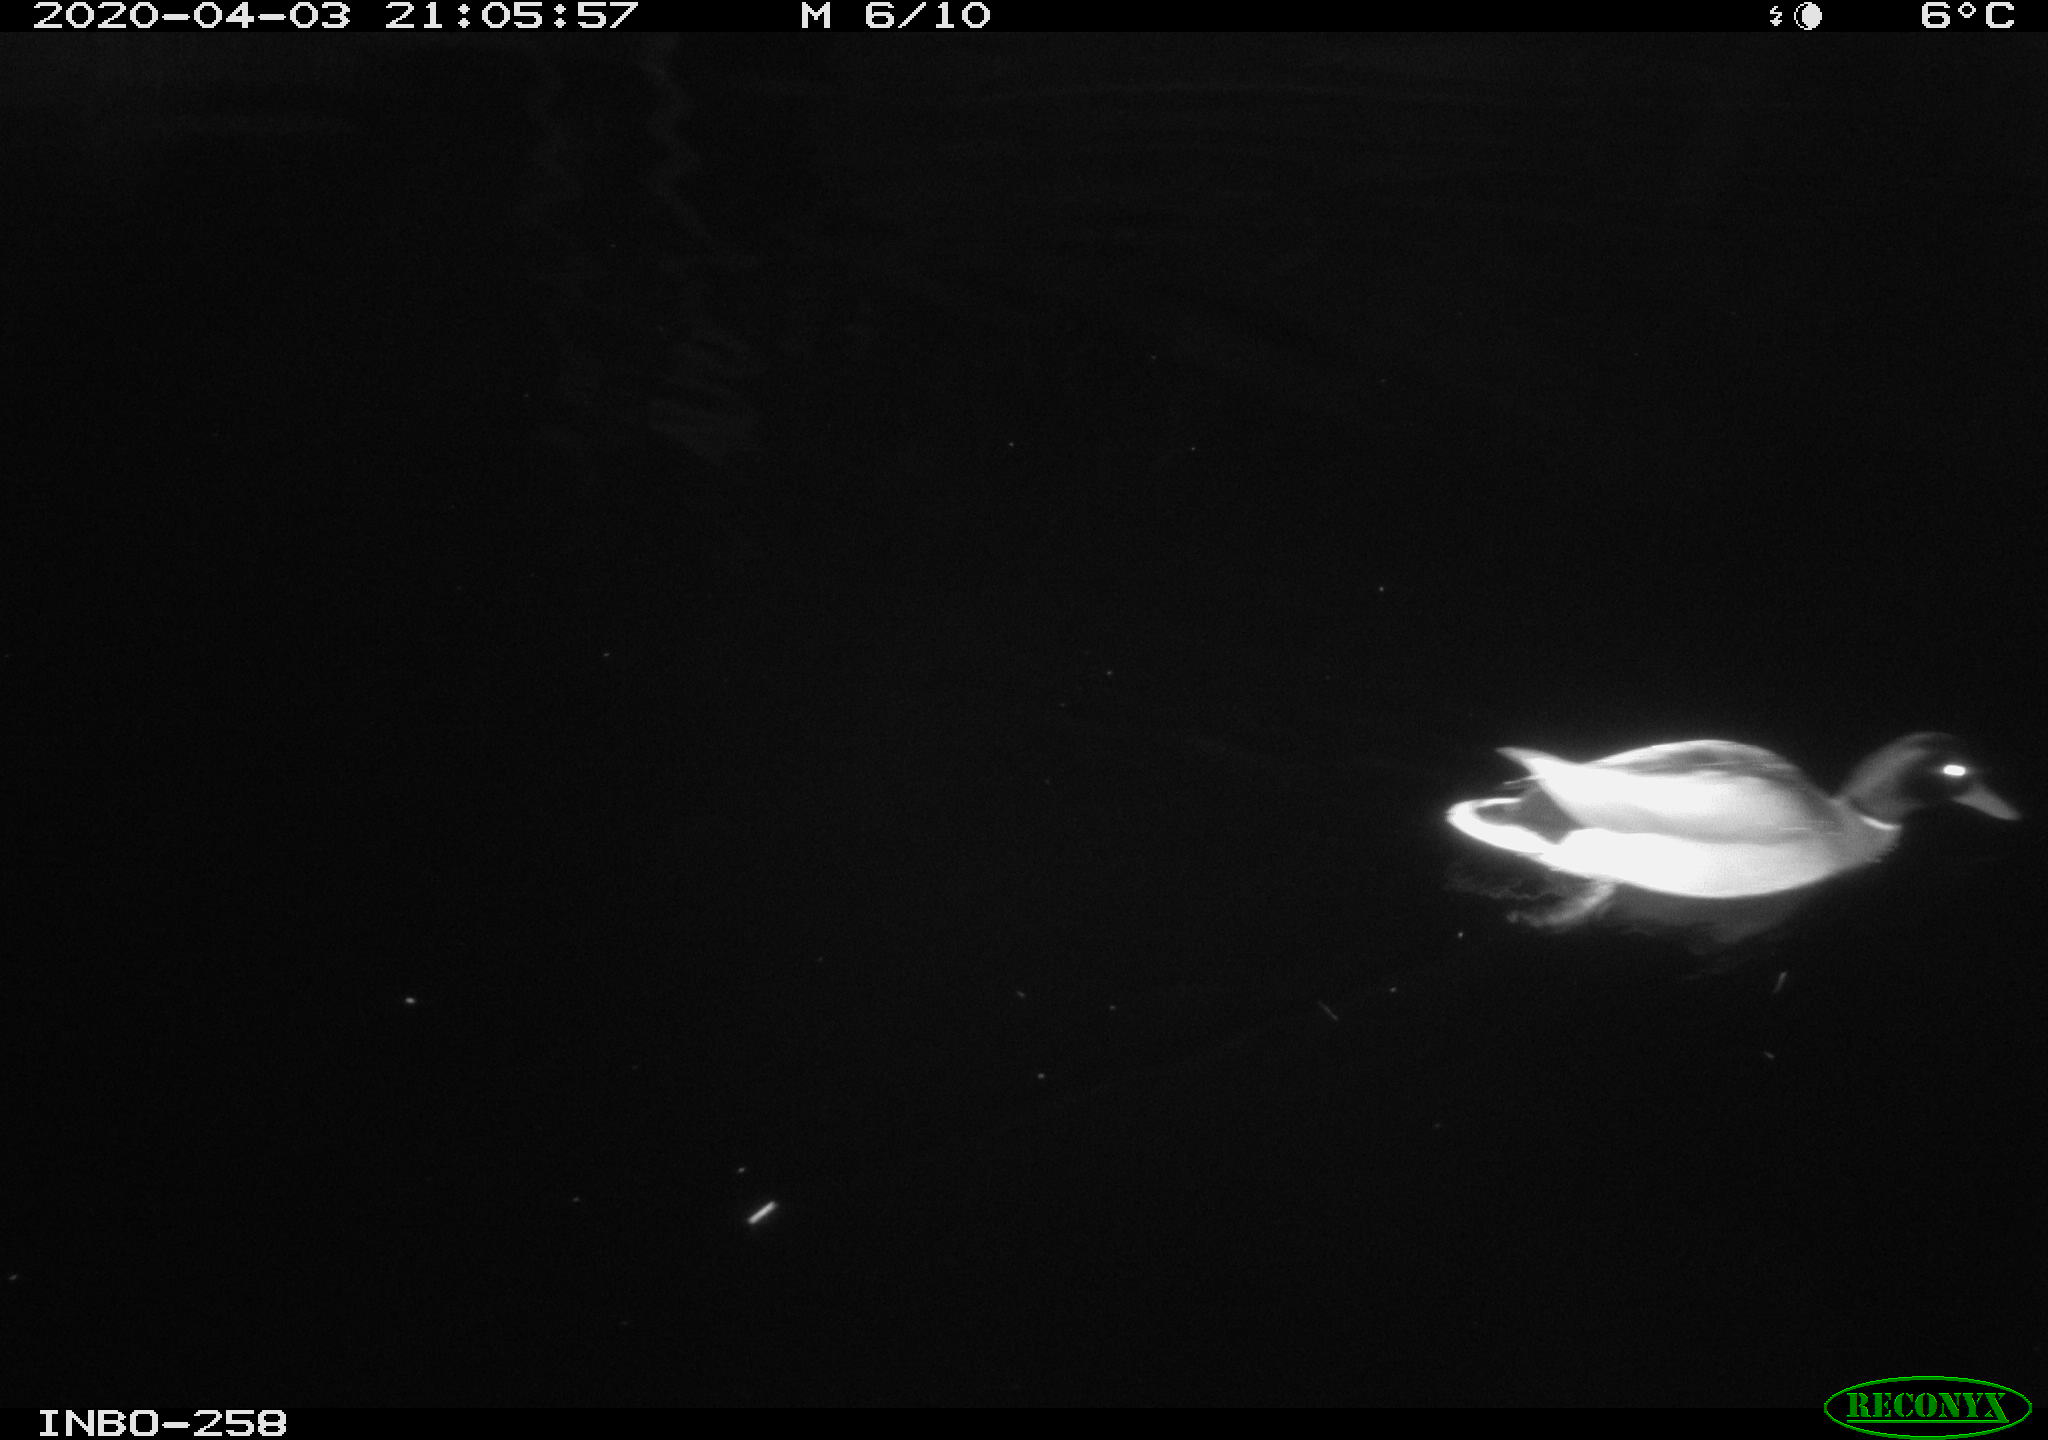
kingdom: Animalia
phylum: Chordata
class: Aves
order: Anseriformes
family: Anatidae
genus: Anas
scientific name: Anas platyrhynchos
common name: Mallard
